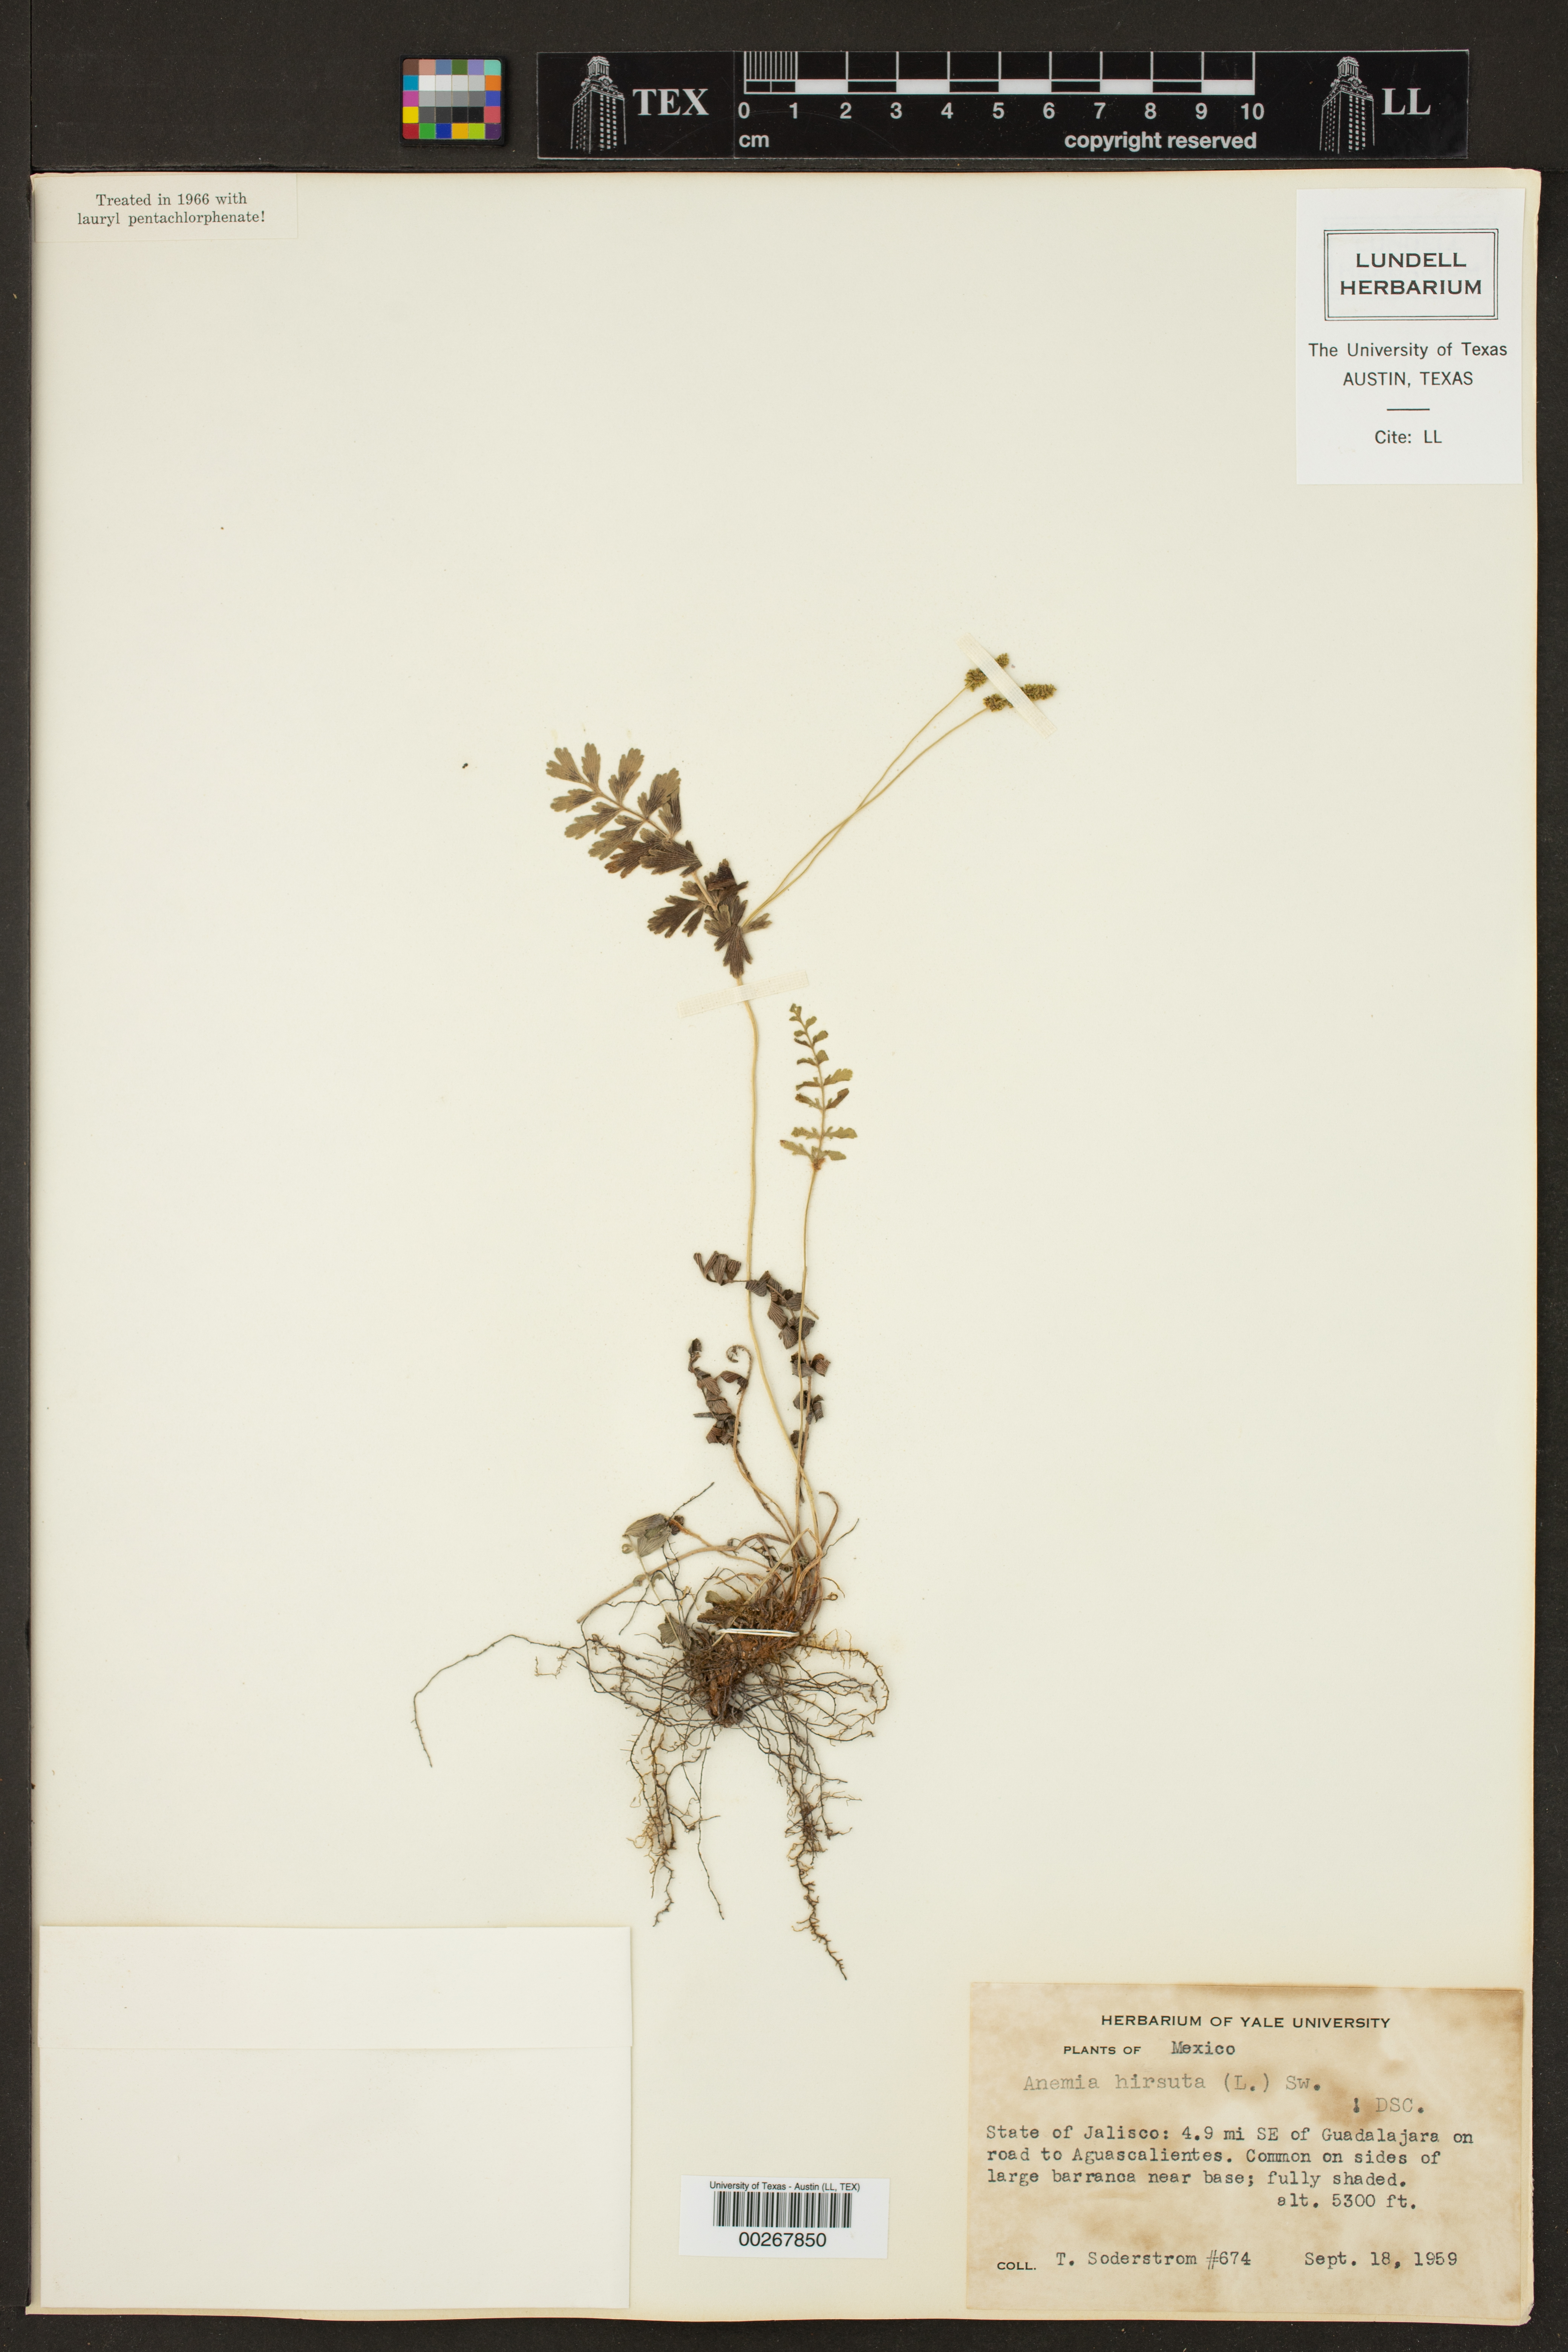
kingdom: Plantae
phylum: Tracheophyta
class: Polypodiopsida
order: Schizaeales
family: Anemiaceae
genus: Anemia
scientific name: Anemia hirsuta
